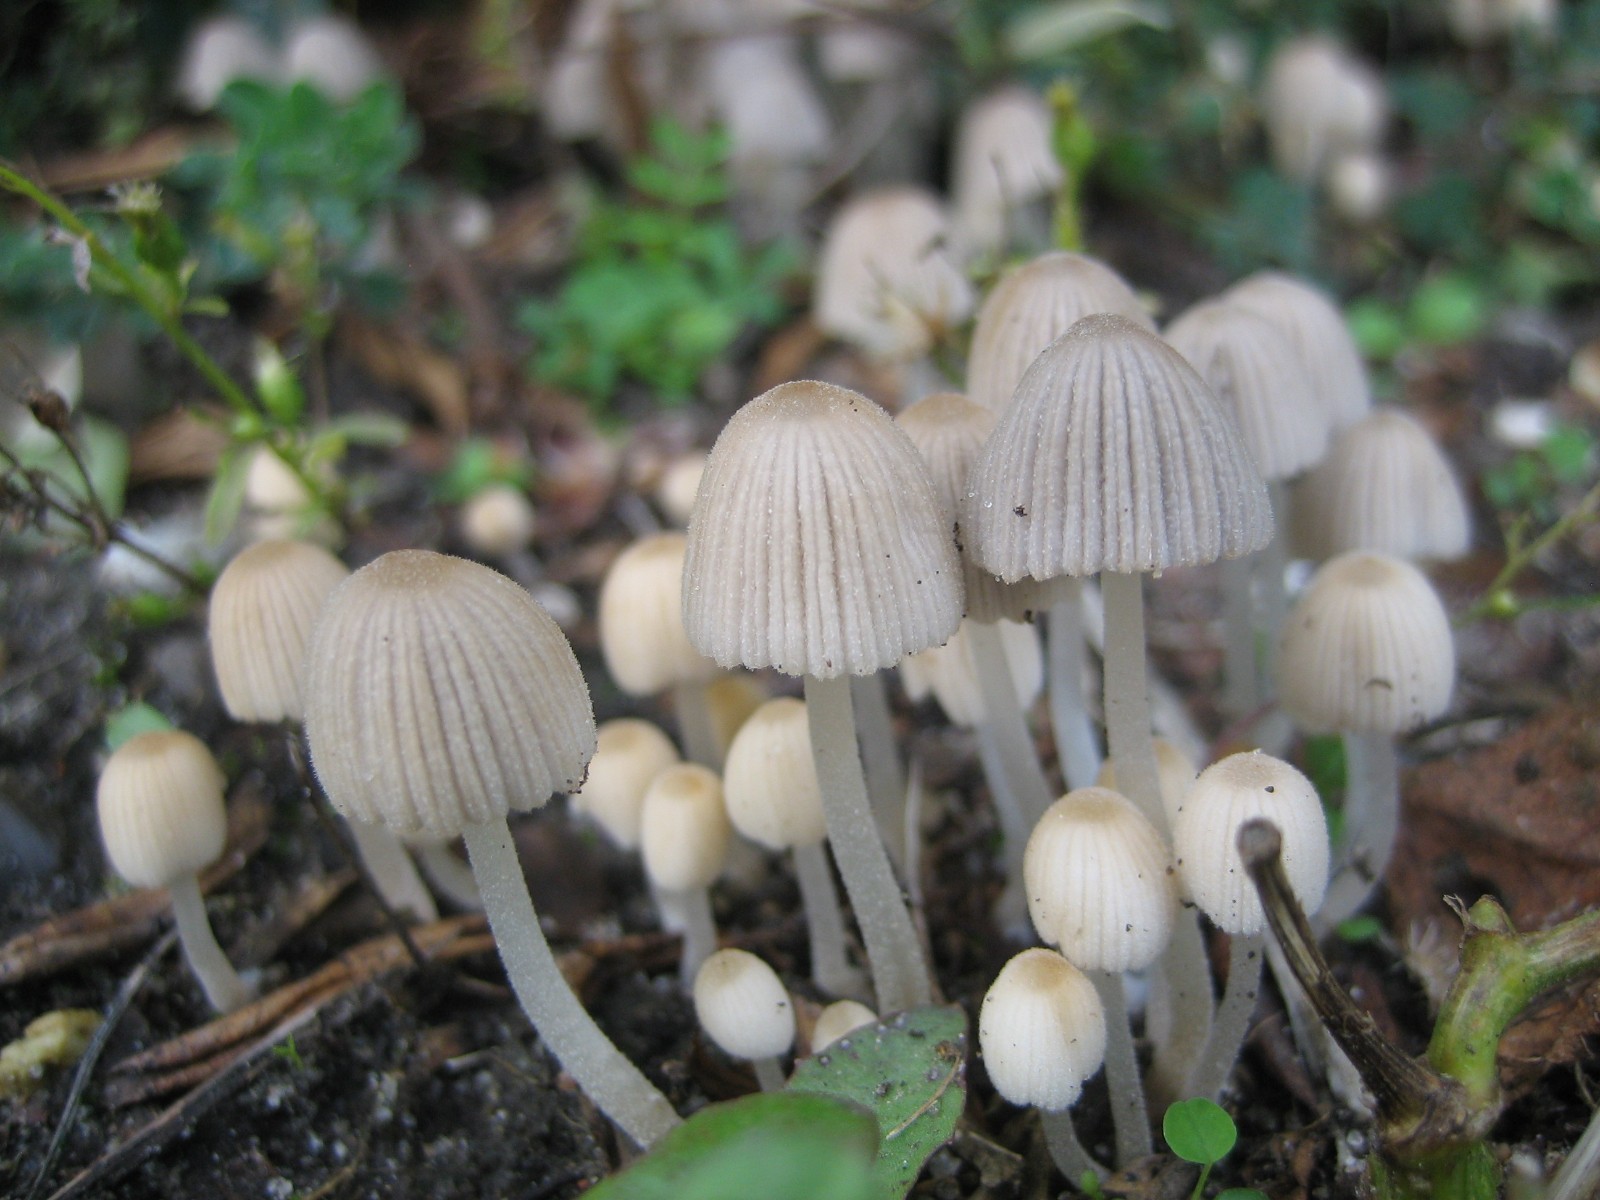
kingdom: Fungi
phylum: Basidiomycota
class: Agaricomycetes
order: Agaricales
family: Psathyrellaceae
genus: Coprinellus
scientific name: Coprinellus disseminatus
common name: bredsået blækhat
